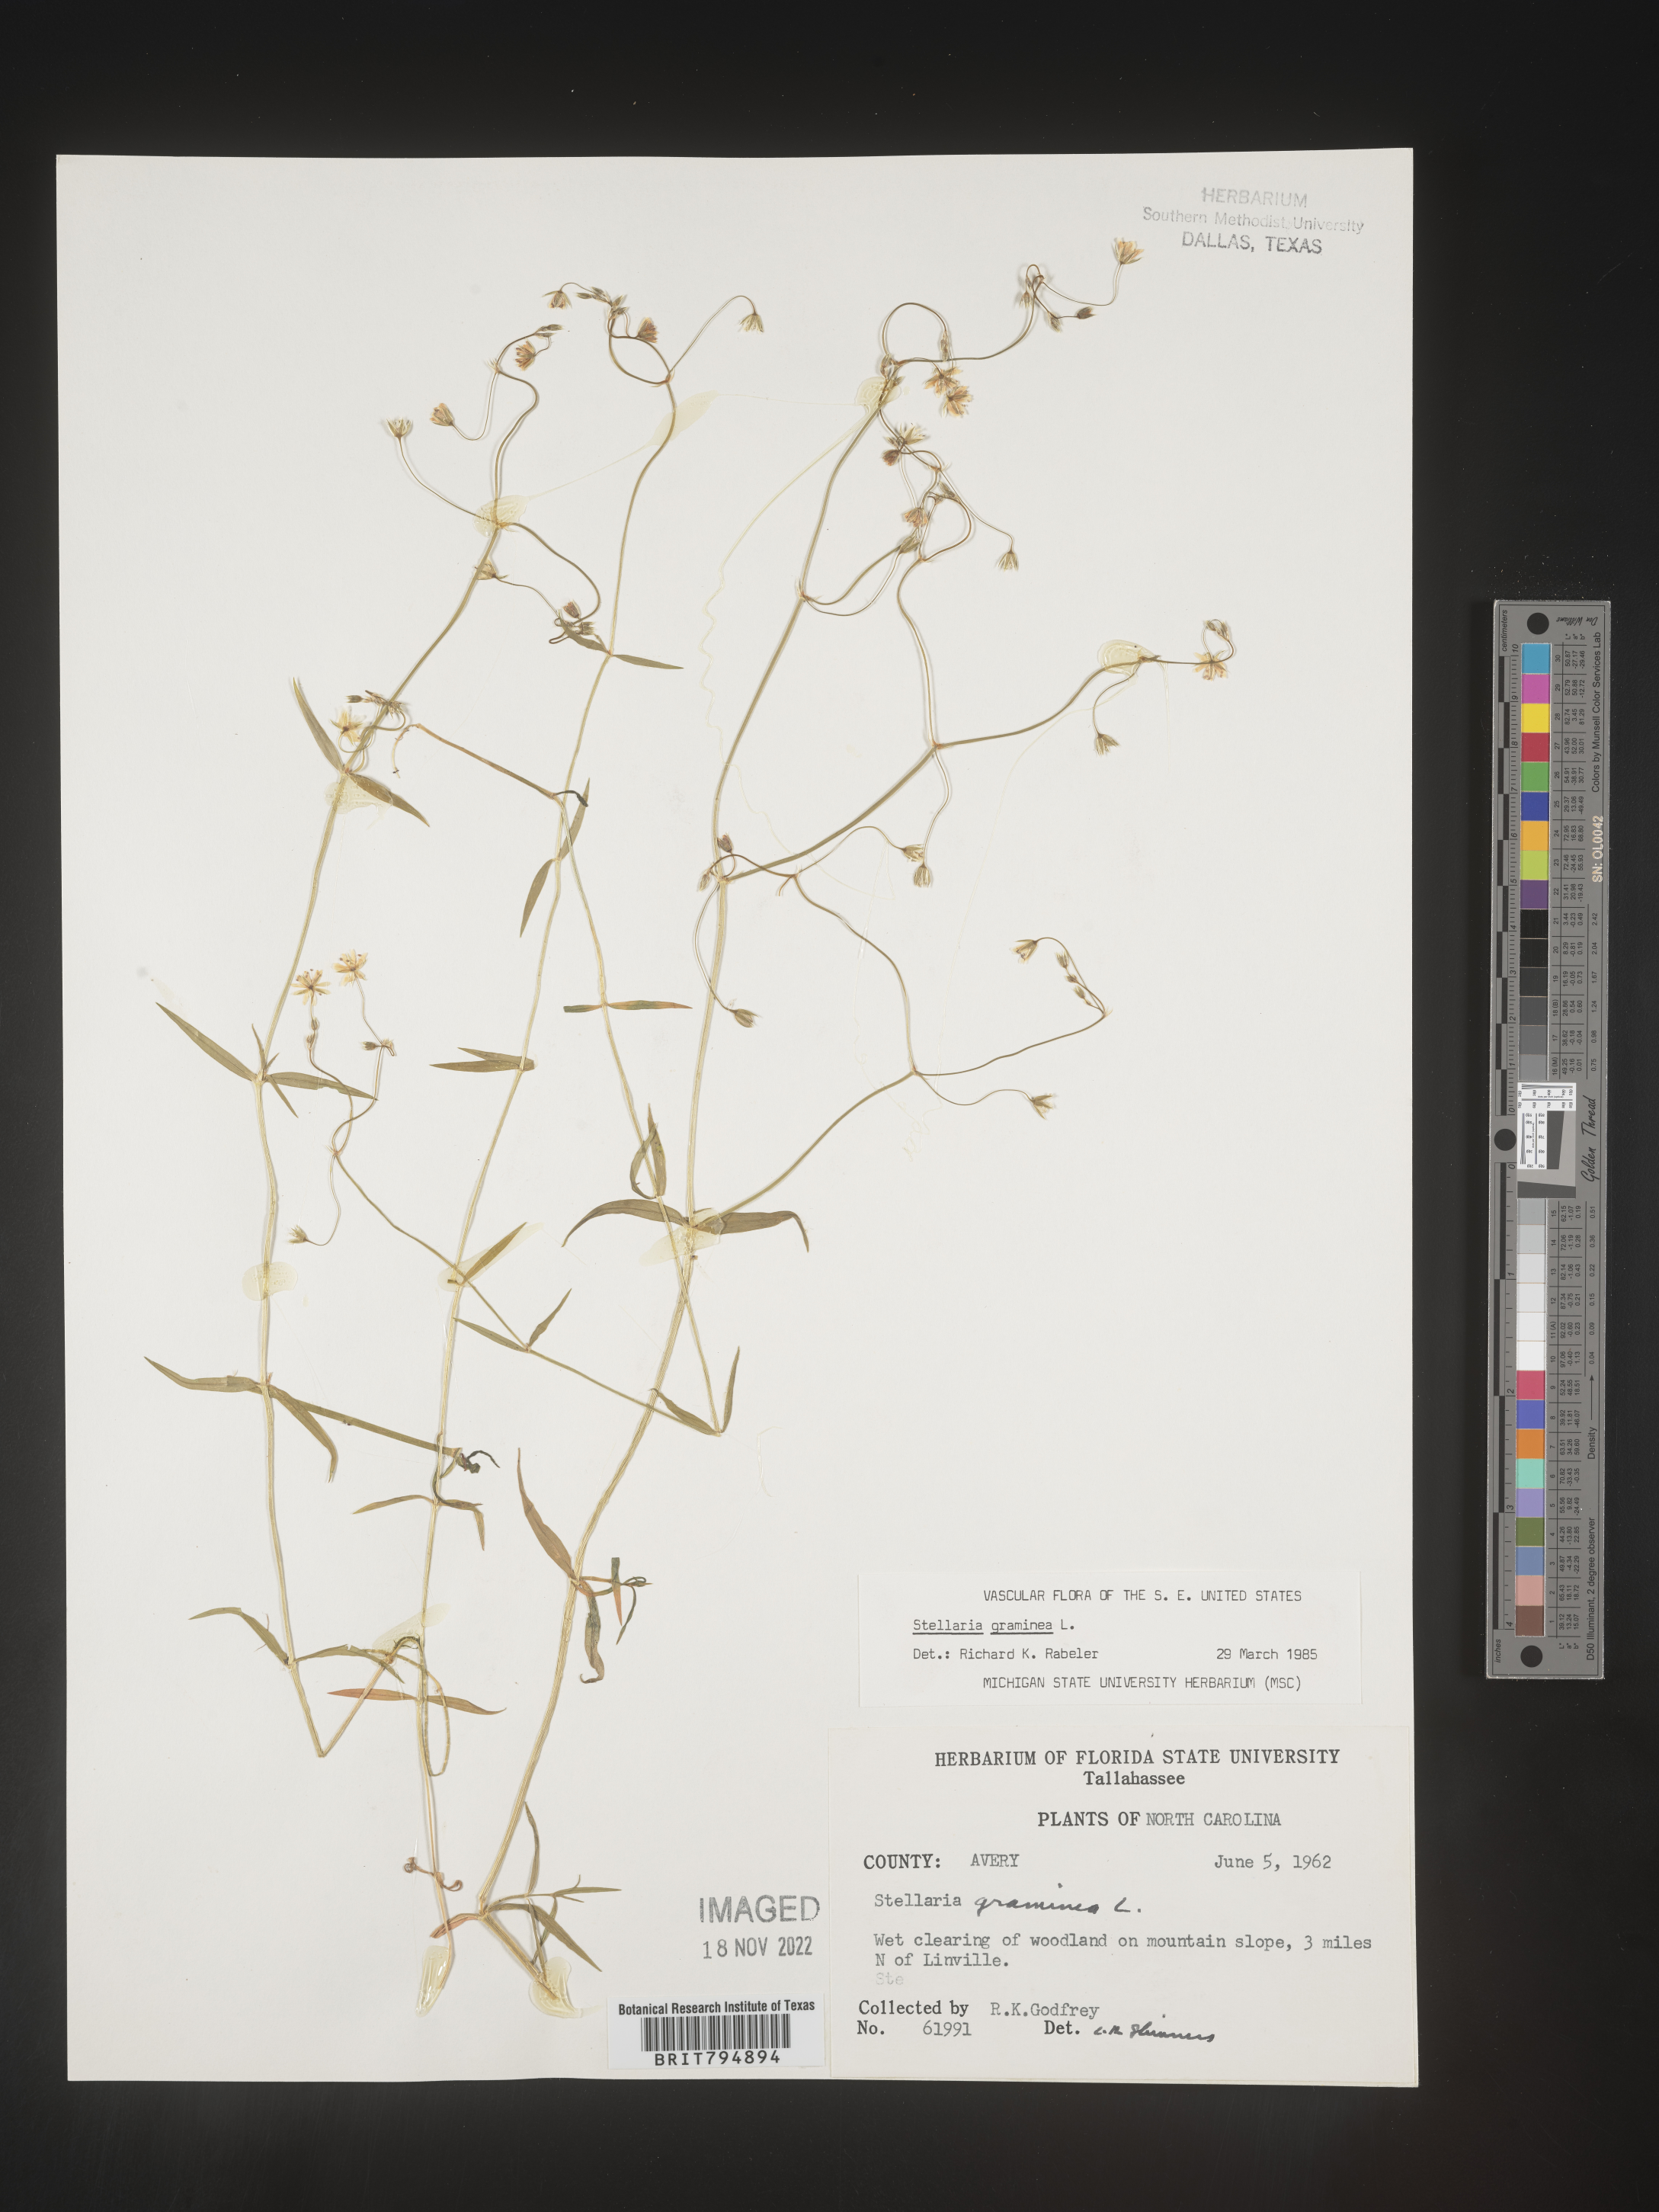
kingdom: Plantae
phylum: Tracheophyta
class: Magnoliopsida
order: Caryophyllales
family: Caryophyllaceae
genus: Stellaria
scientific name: Stellaria graminea
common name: Grass-like starwort
